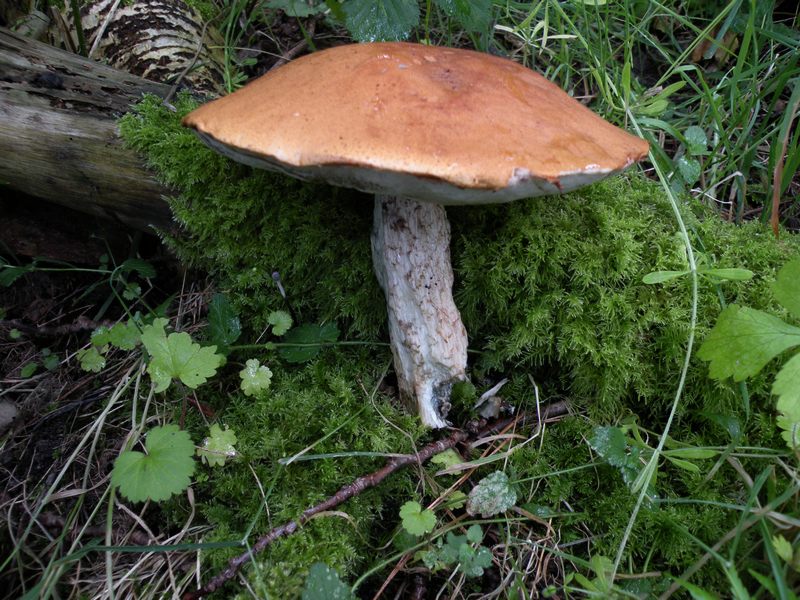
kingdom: Fungi
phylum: Basidiomycota
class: Agaricomycetes
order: Boletales
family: Boletaceae
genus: Leccinum
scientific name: Leccinum aurantiacum
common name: rustrød skælrørhat
